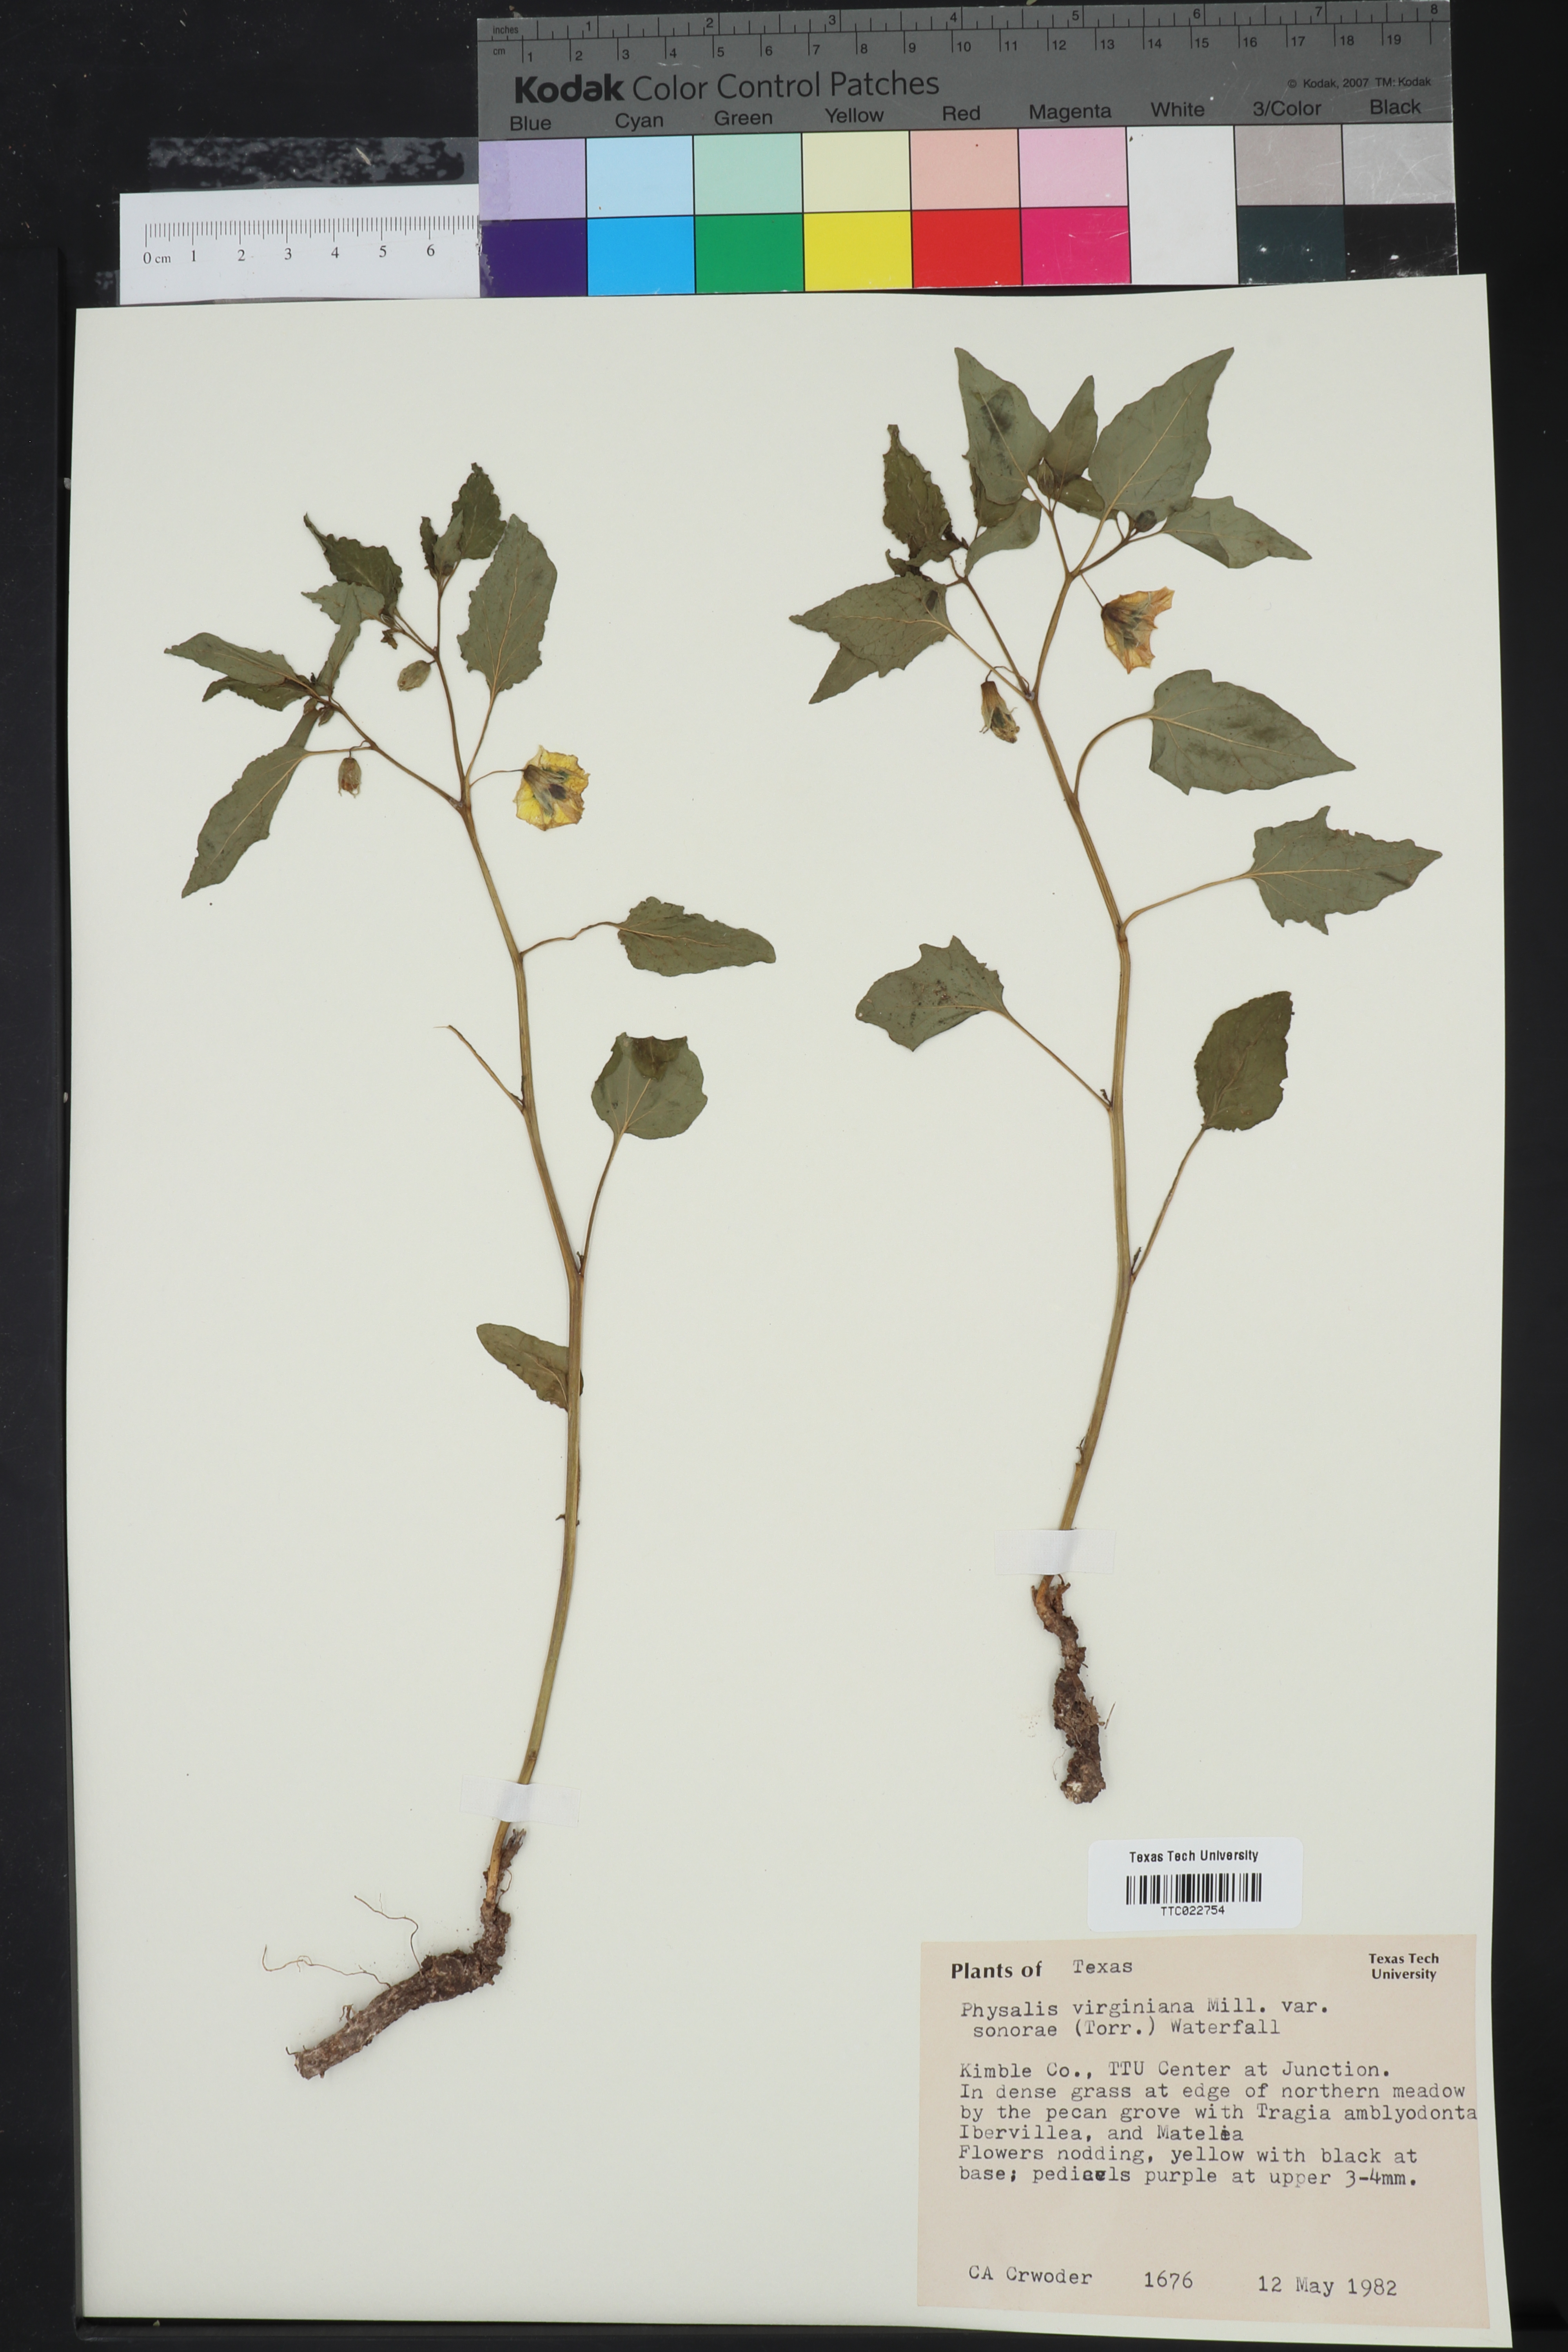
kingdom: Plantae
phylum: Tracheophyta
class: Magnoliopsida
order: Solanales
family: Solanaceae
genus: Physalis
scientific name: Physalis longifolia
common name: Common ground-cherry
